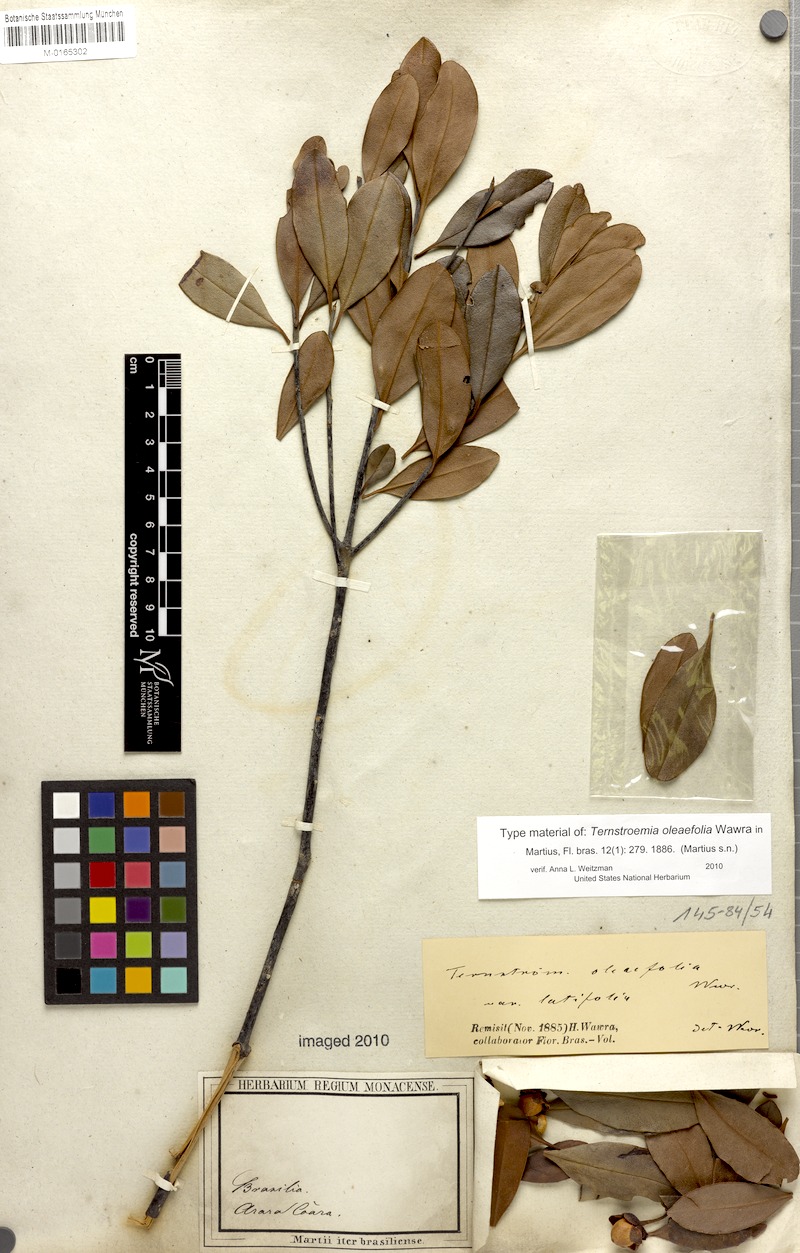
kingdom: Plantae
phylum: Tracheophyta
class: Magnoliopsida
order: Ericales
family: Pentaphylacaceae
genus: Ternstroemia
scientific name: Ternstroemia oleifolia
